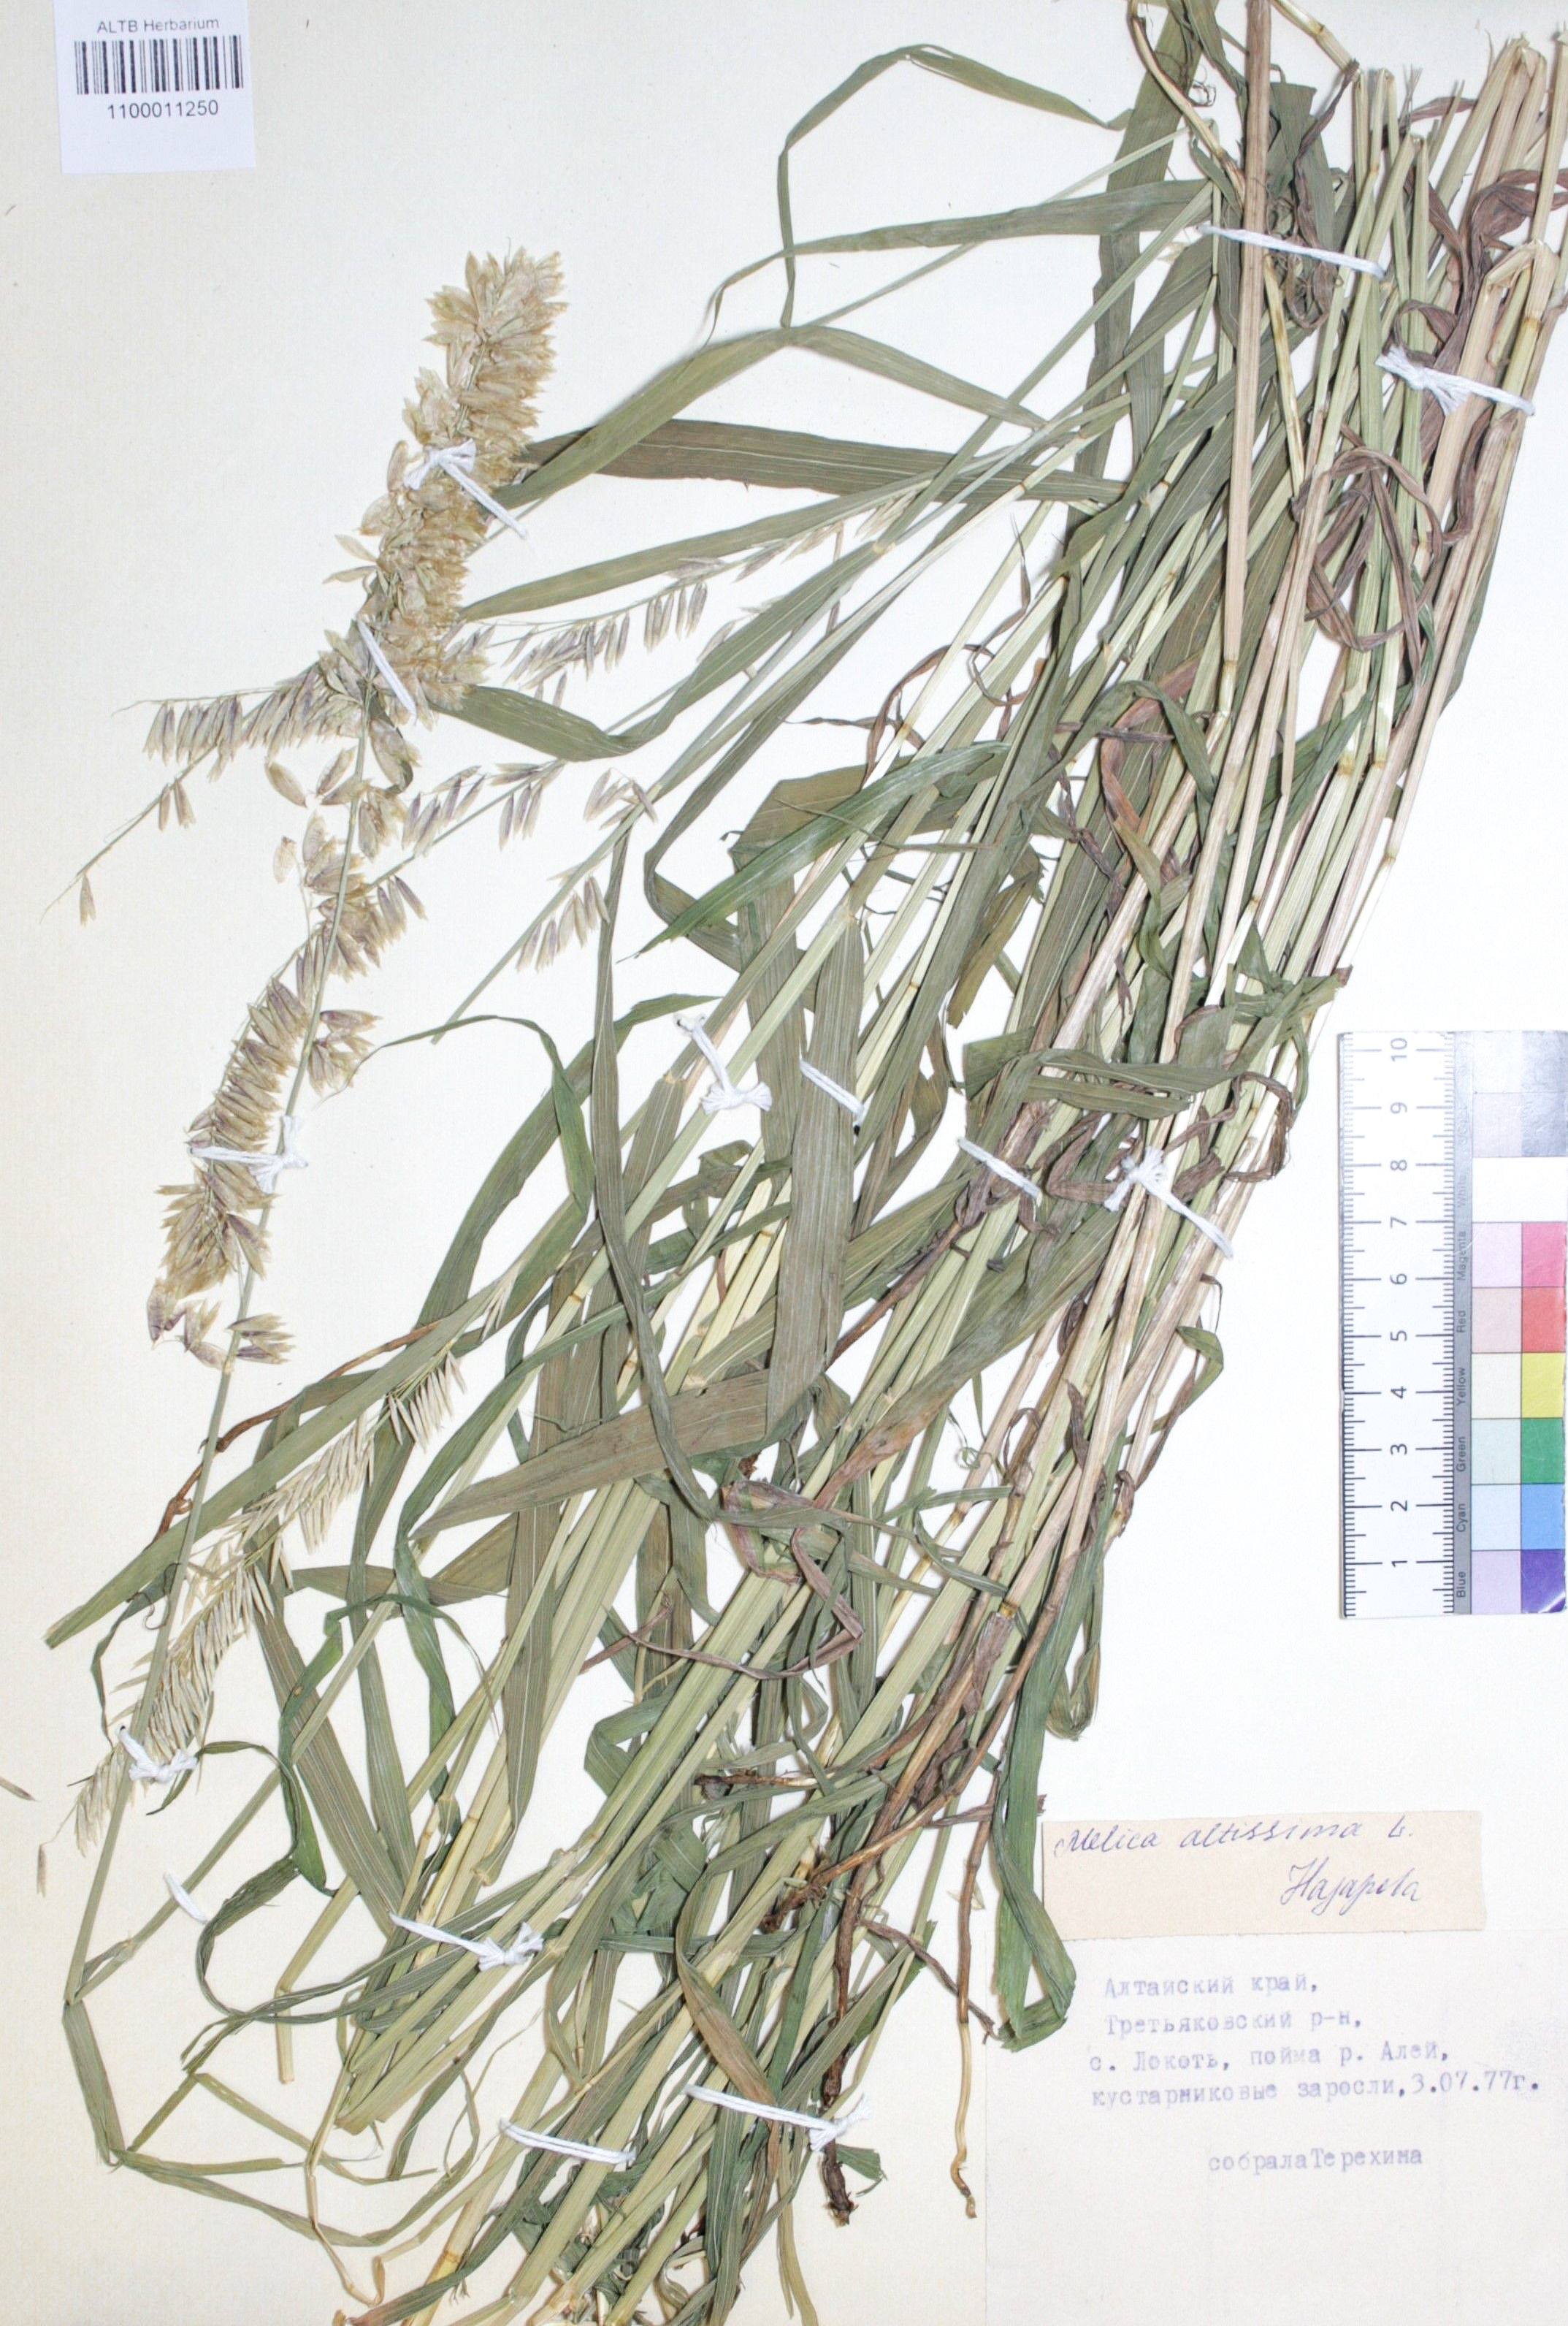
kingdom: Plantae
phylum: Tracheophyta
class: Liliopsida
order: Poales
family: Poaceae
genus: Melica
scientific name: Melica altissima
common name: Siberian melicgrass
